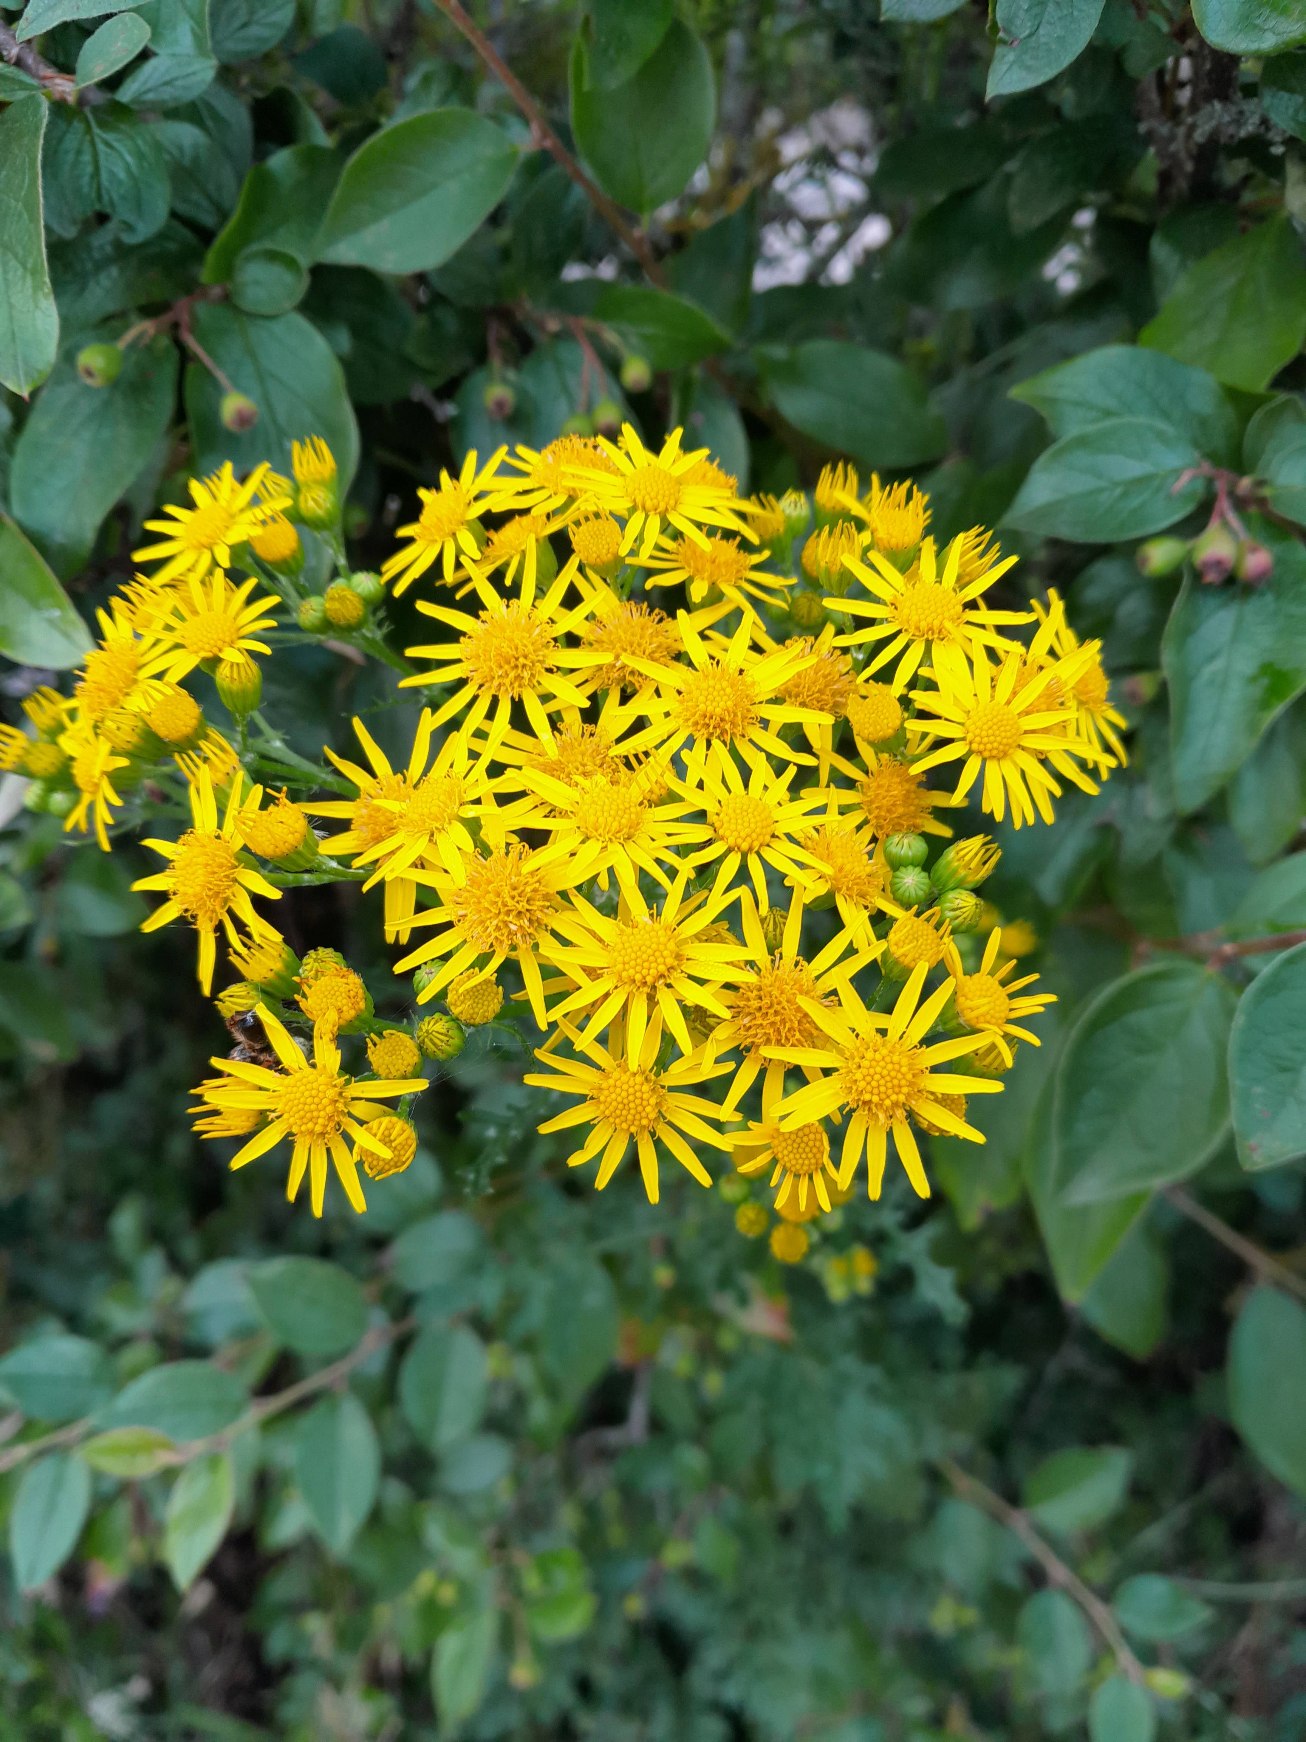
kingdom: Plantae
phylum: Tracheophyta
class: Magnoliopsida
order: Asterales
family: Asteraceae
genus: Jacobaea
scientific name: Jacobaea vulgaris
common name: Eng-brandbæger
